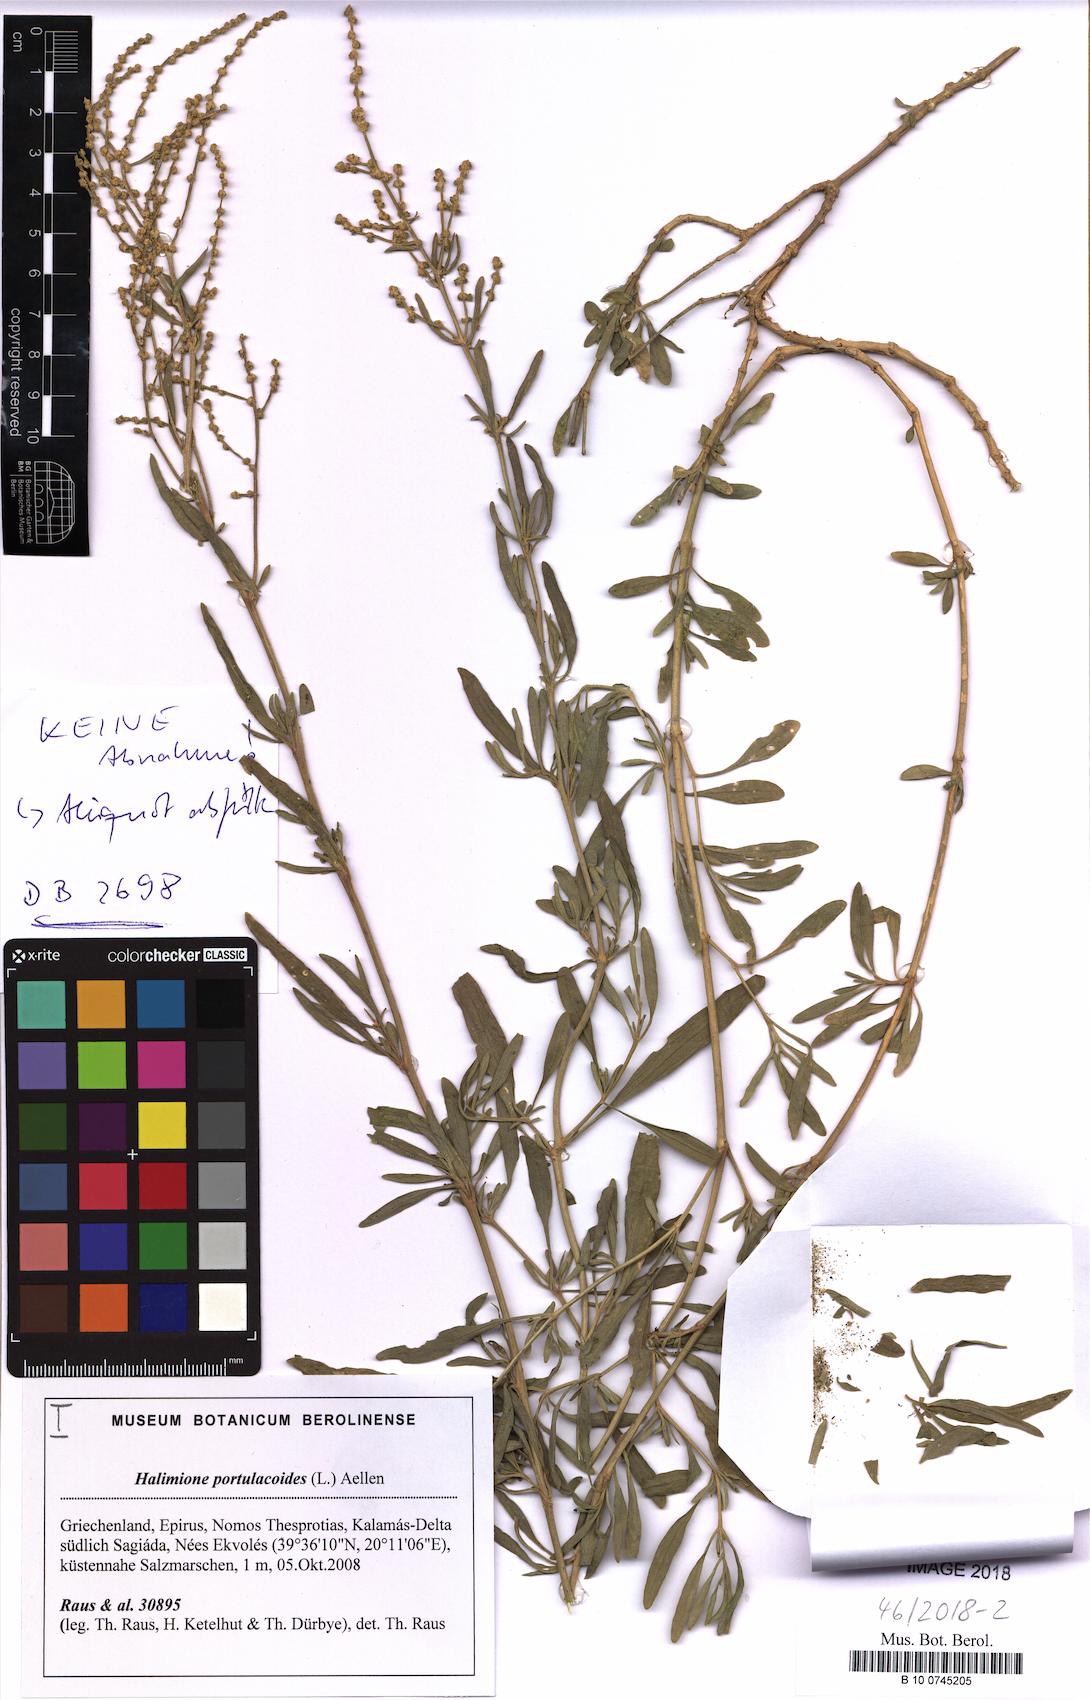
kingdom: Plantae
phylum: Tracheophyta
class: Magnoliopsida
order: Caryophyllales
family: Amaranthaceae
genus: Halimione
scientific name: Halimione portulacoides
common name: Sea-purslane
